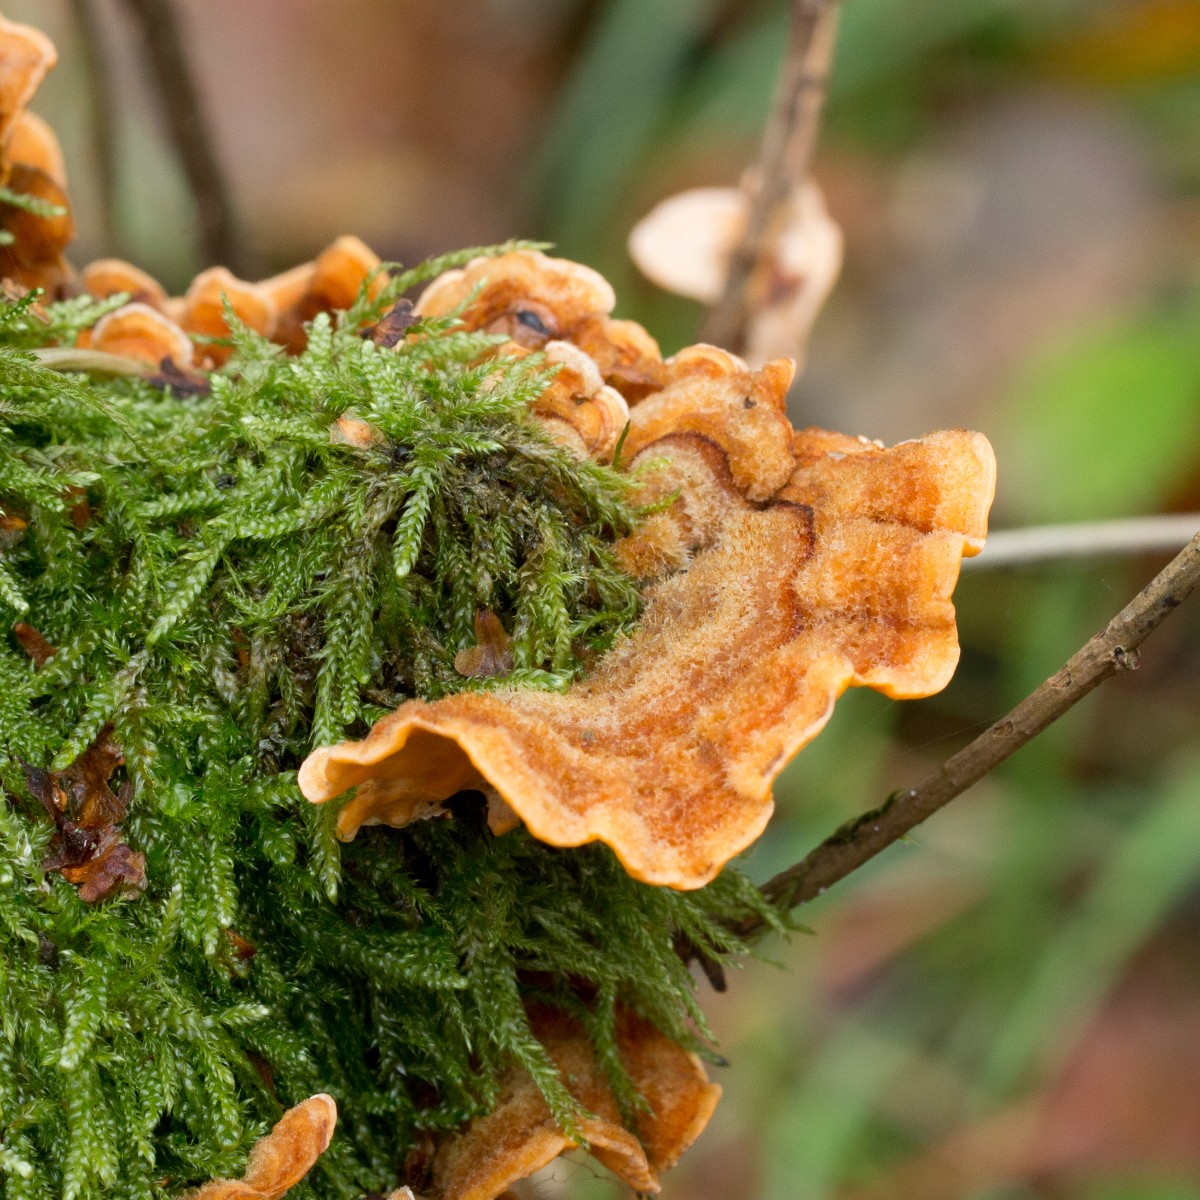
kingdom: Fungi
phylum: Basidiomycota
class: Agaricomycetes
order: Russulales
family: Stereaceae
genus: Stereum
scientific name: Stereum hirsutum
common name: håret lædersvamp
